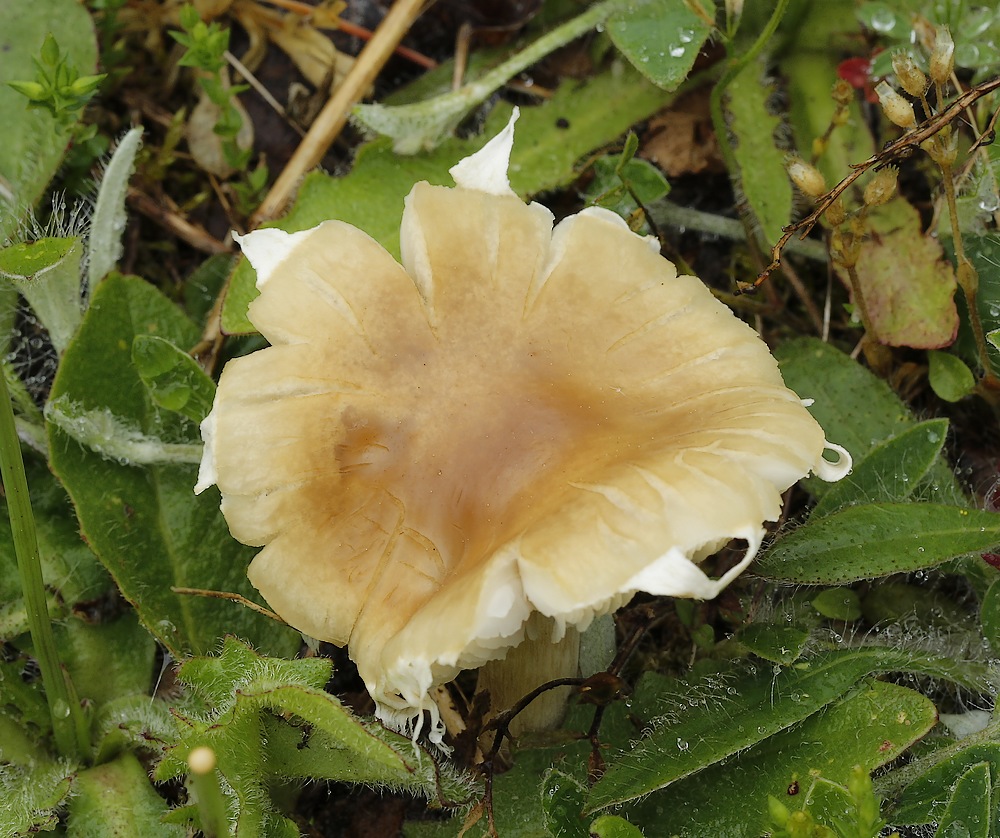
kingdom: Fungi
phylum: Basidiomycota
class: Agaricomycetes
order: Agaricales
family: Strophariaceae
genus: Agrocybe
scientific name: Agrocybe praecox
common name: tidlig agerhat
